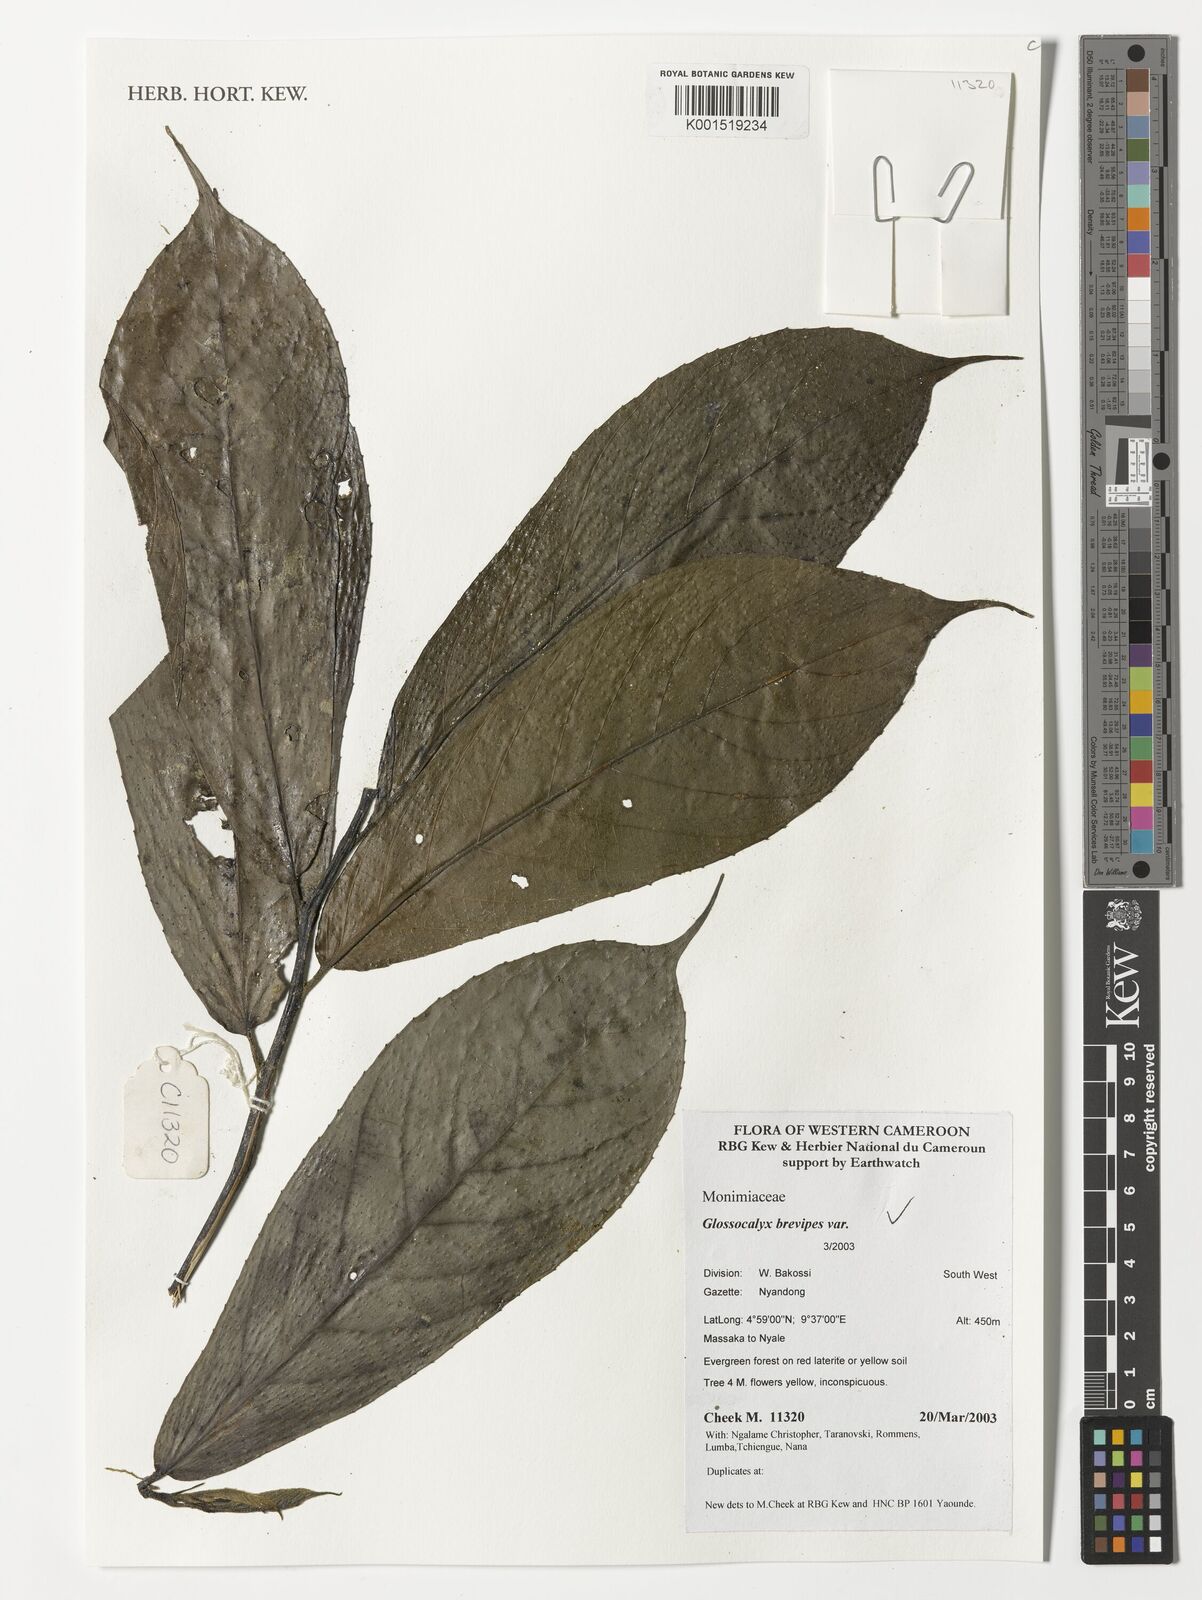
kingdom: Plantae
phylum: Tracheophyta
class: Magnoliopsida
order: Laurales
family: Siparunaceae
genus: Glossocalyx
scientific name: Glossocalyx brevipes
